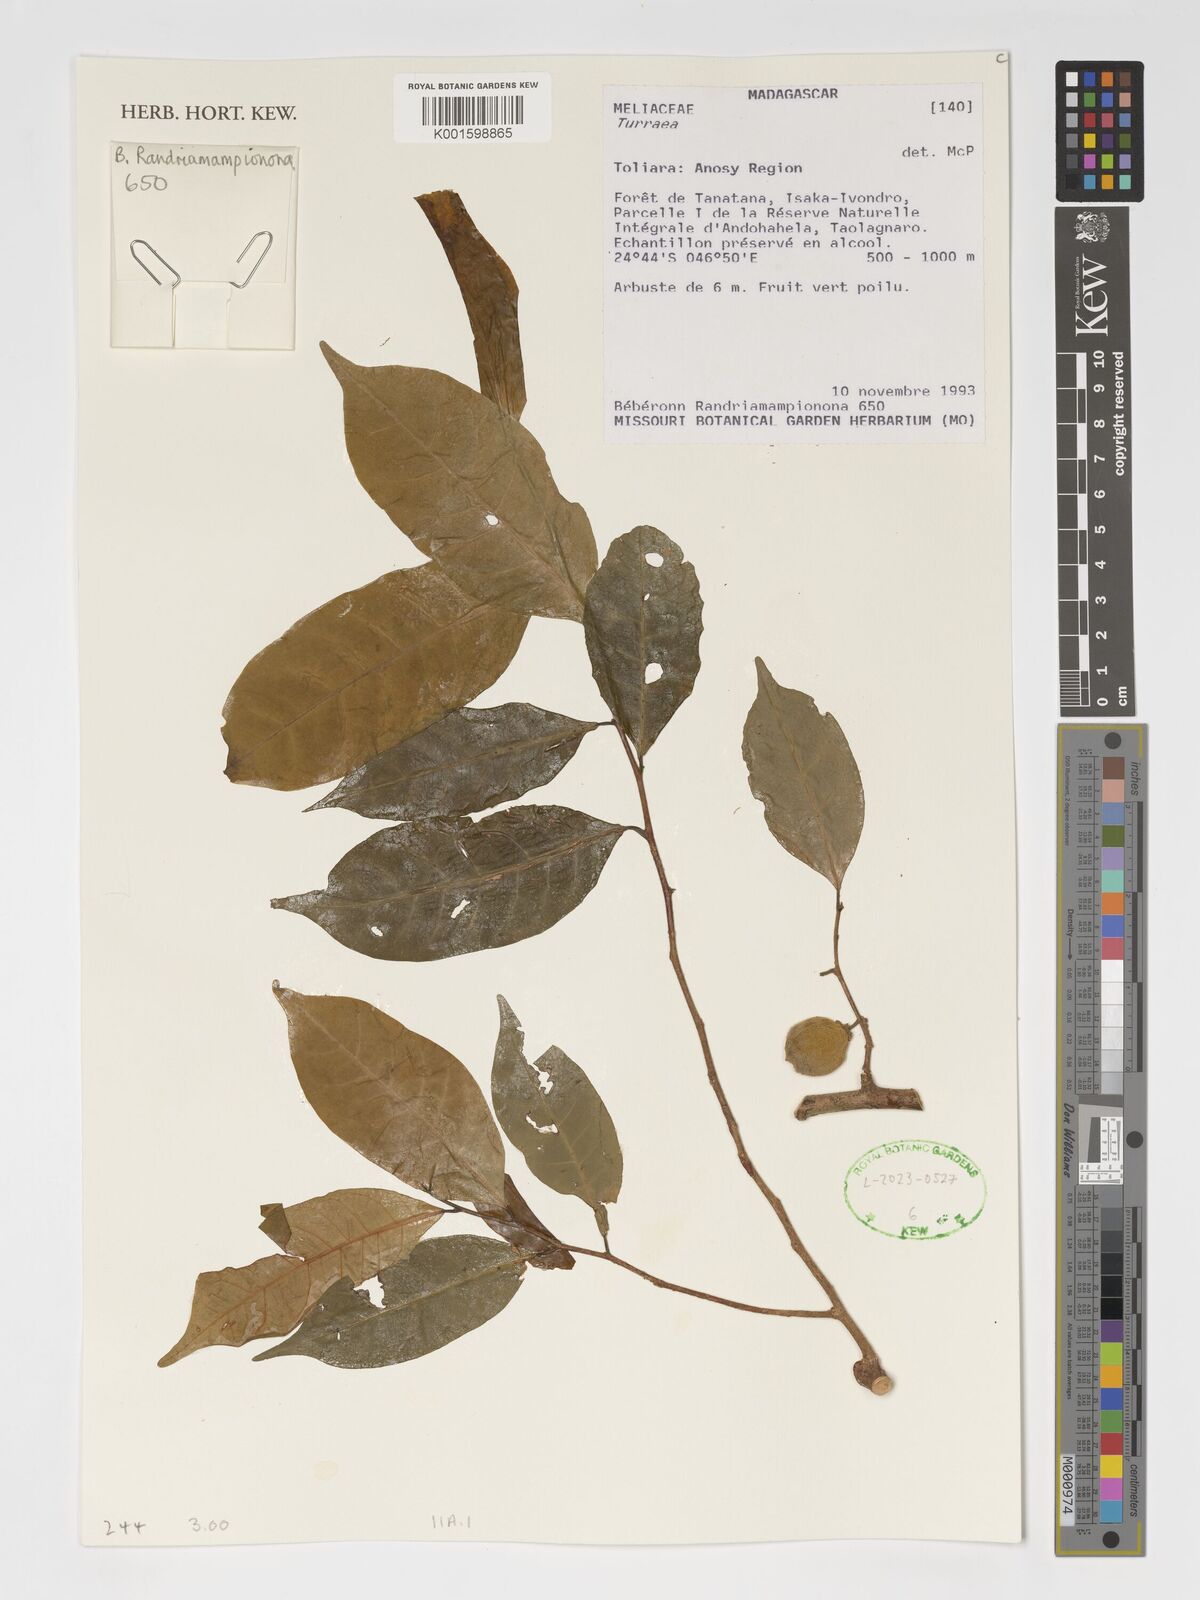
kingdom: Plantae
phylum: Tracheophyta
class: Magnoliopsida
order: Sapindales
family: Meliaceae
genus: Turraea
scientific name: Turraea
